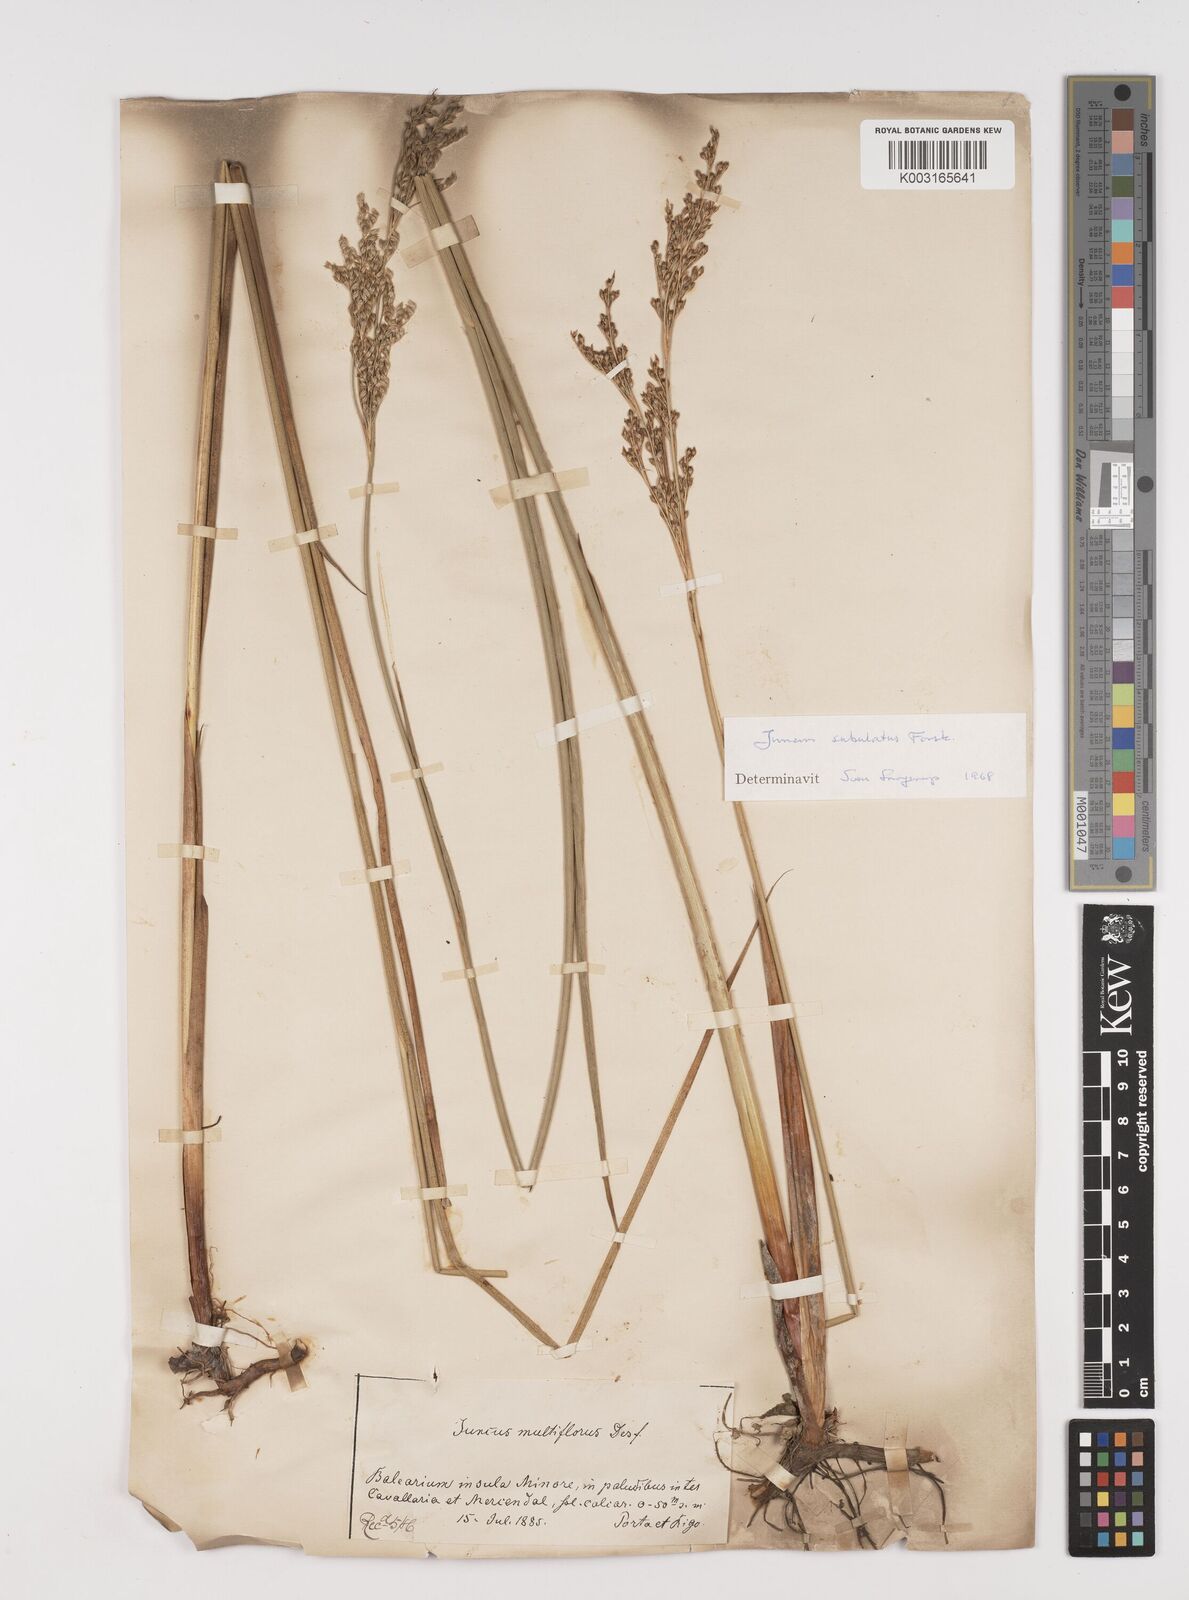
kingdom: Plantae
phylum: Tracheophyta
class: Liliopsida
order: Poales
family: Juncaceae
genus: Juncus
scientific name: Juncus subulatus
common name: Somerset rush
